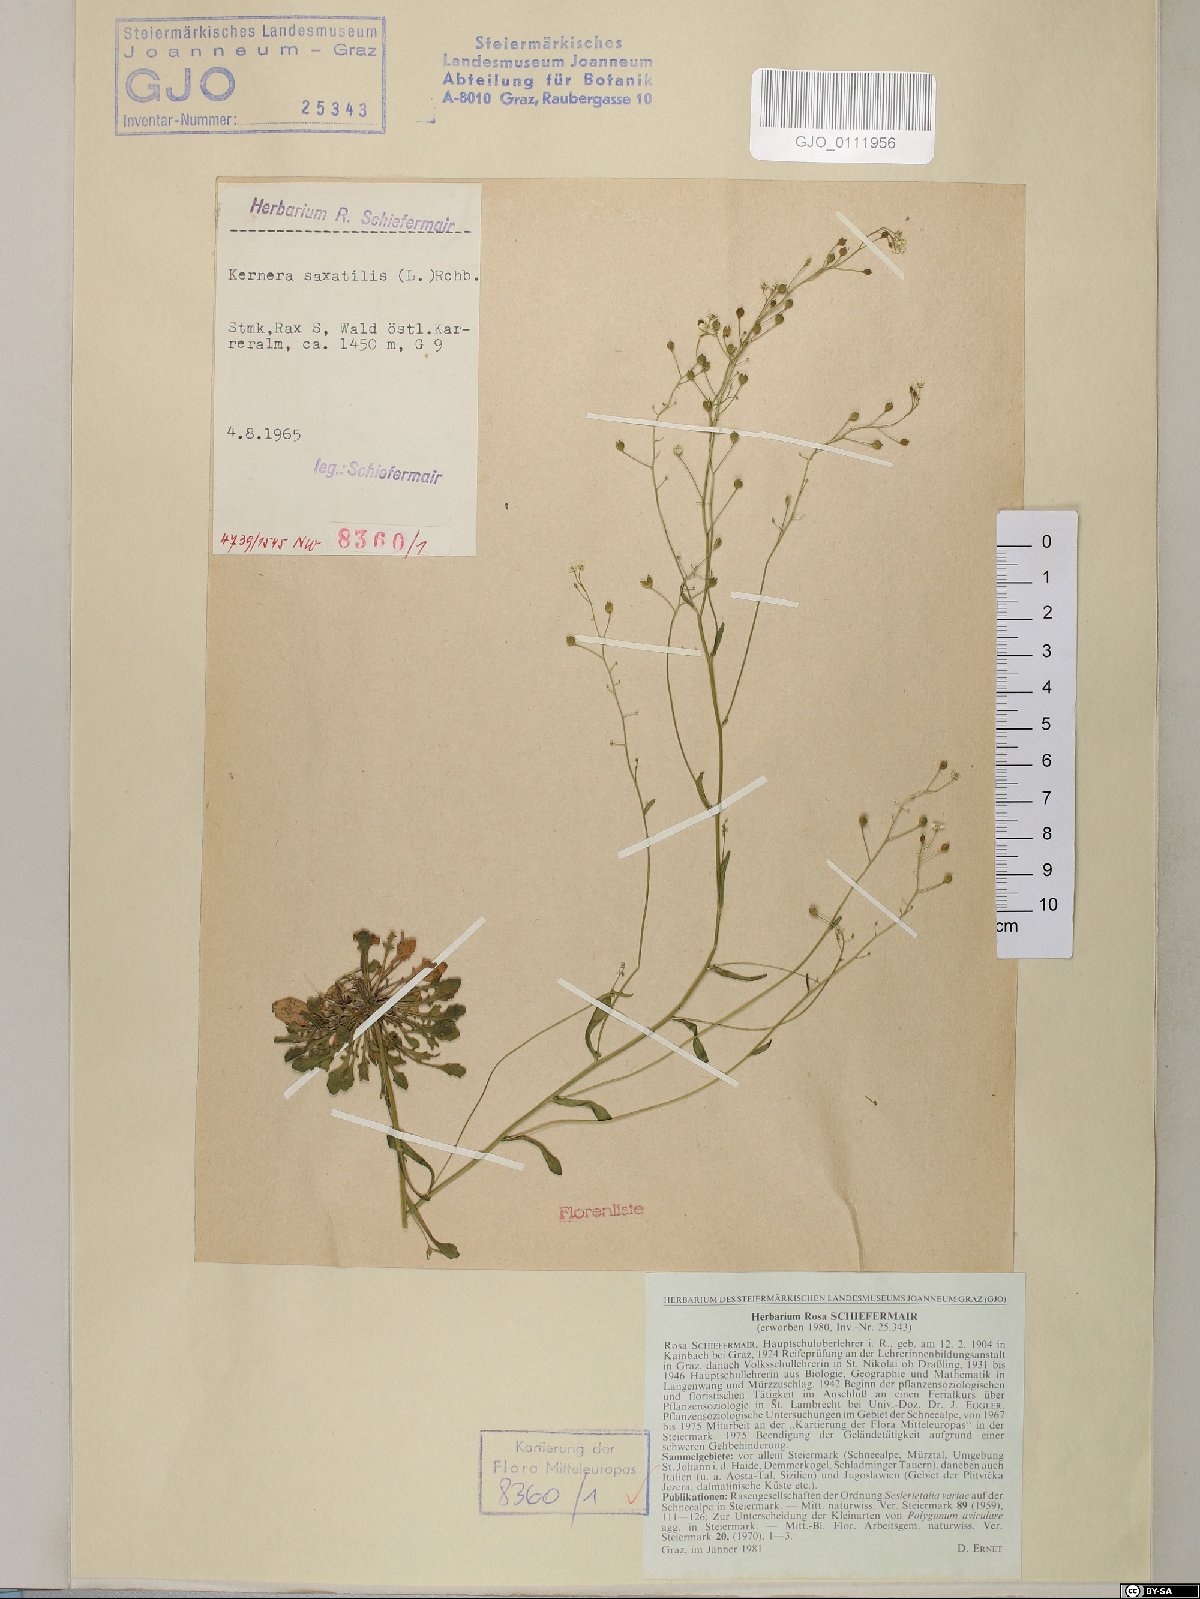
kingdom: Plantae
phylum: Tracheophyta
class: Magnoliopsida
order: Brassicales
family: Brassicaceae
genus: Kernera
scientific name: Kernera saxatilis
